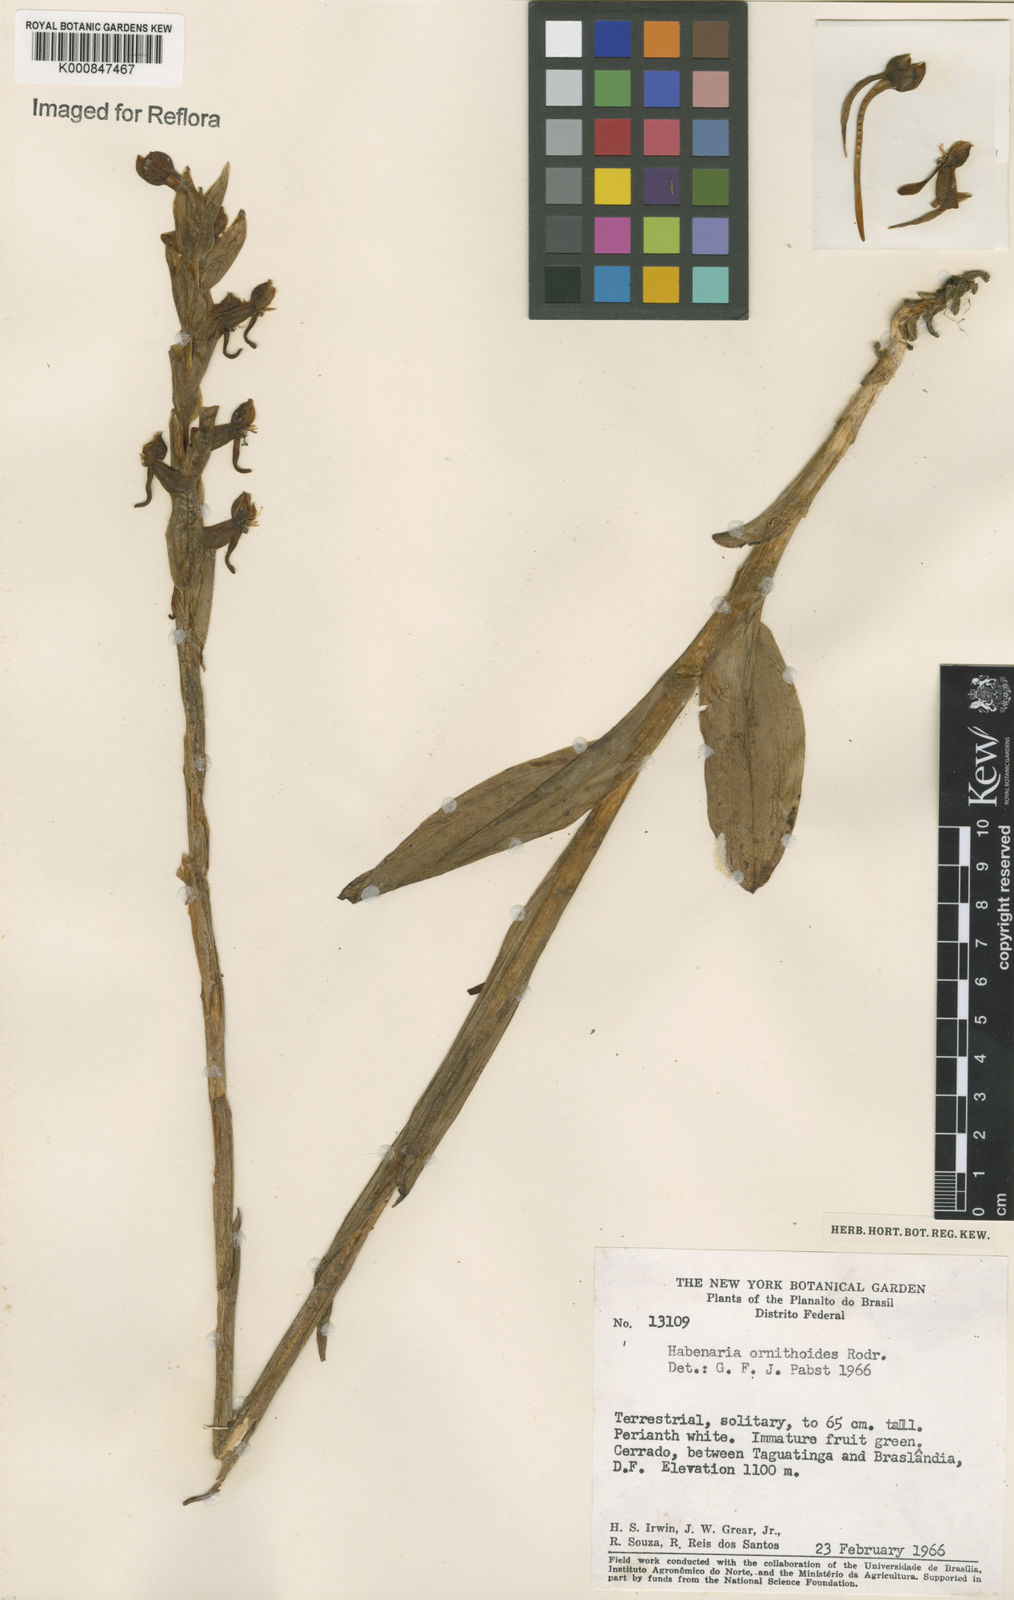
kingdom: Plantae
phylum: Tracheophyta
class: Liliopsida
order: Asparagales
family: Orchidaceae
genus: Habenaria
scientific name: Habenaria obtusa
